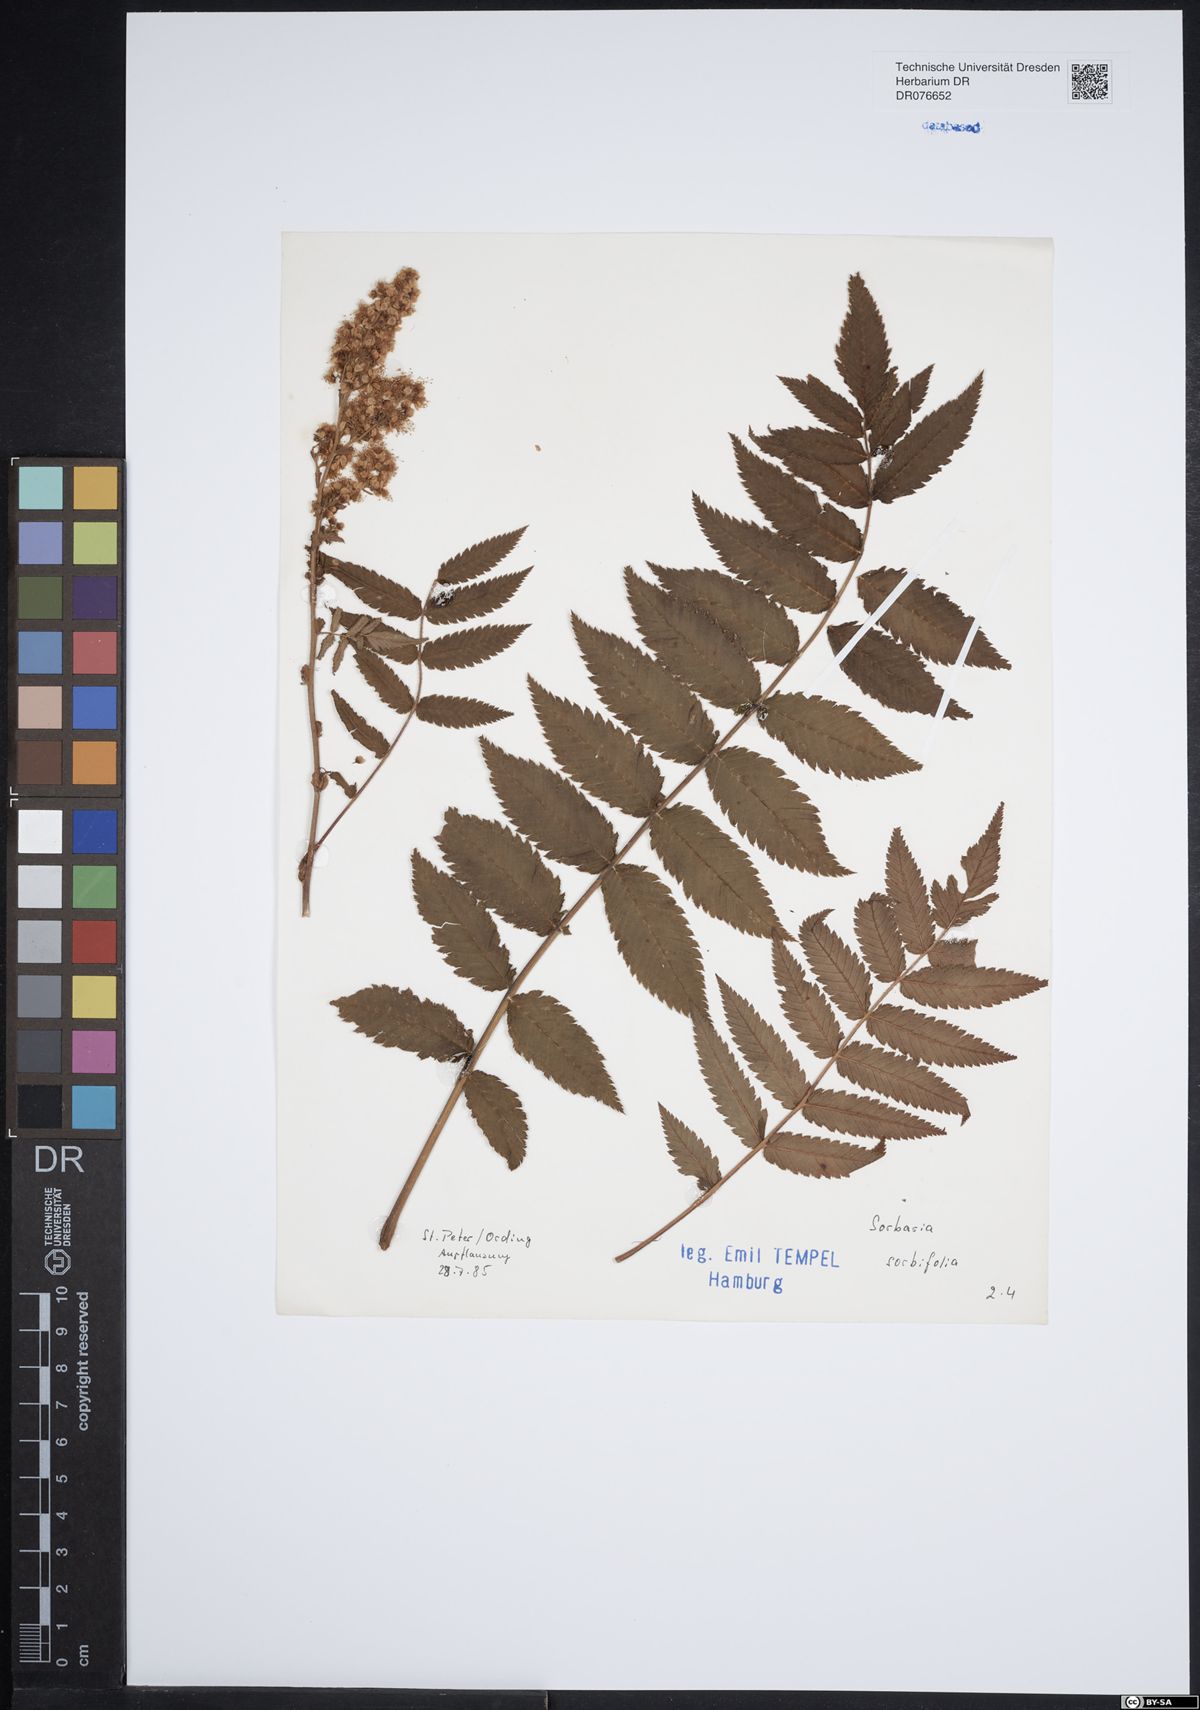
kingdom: Plantae
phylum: Tracheophyta
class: Magnoliopsida
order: Rosales
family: Rosaceae
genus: Sorbaria
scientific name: Sorbaria sorbifolia
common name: False spiraea
